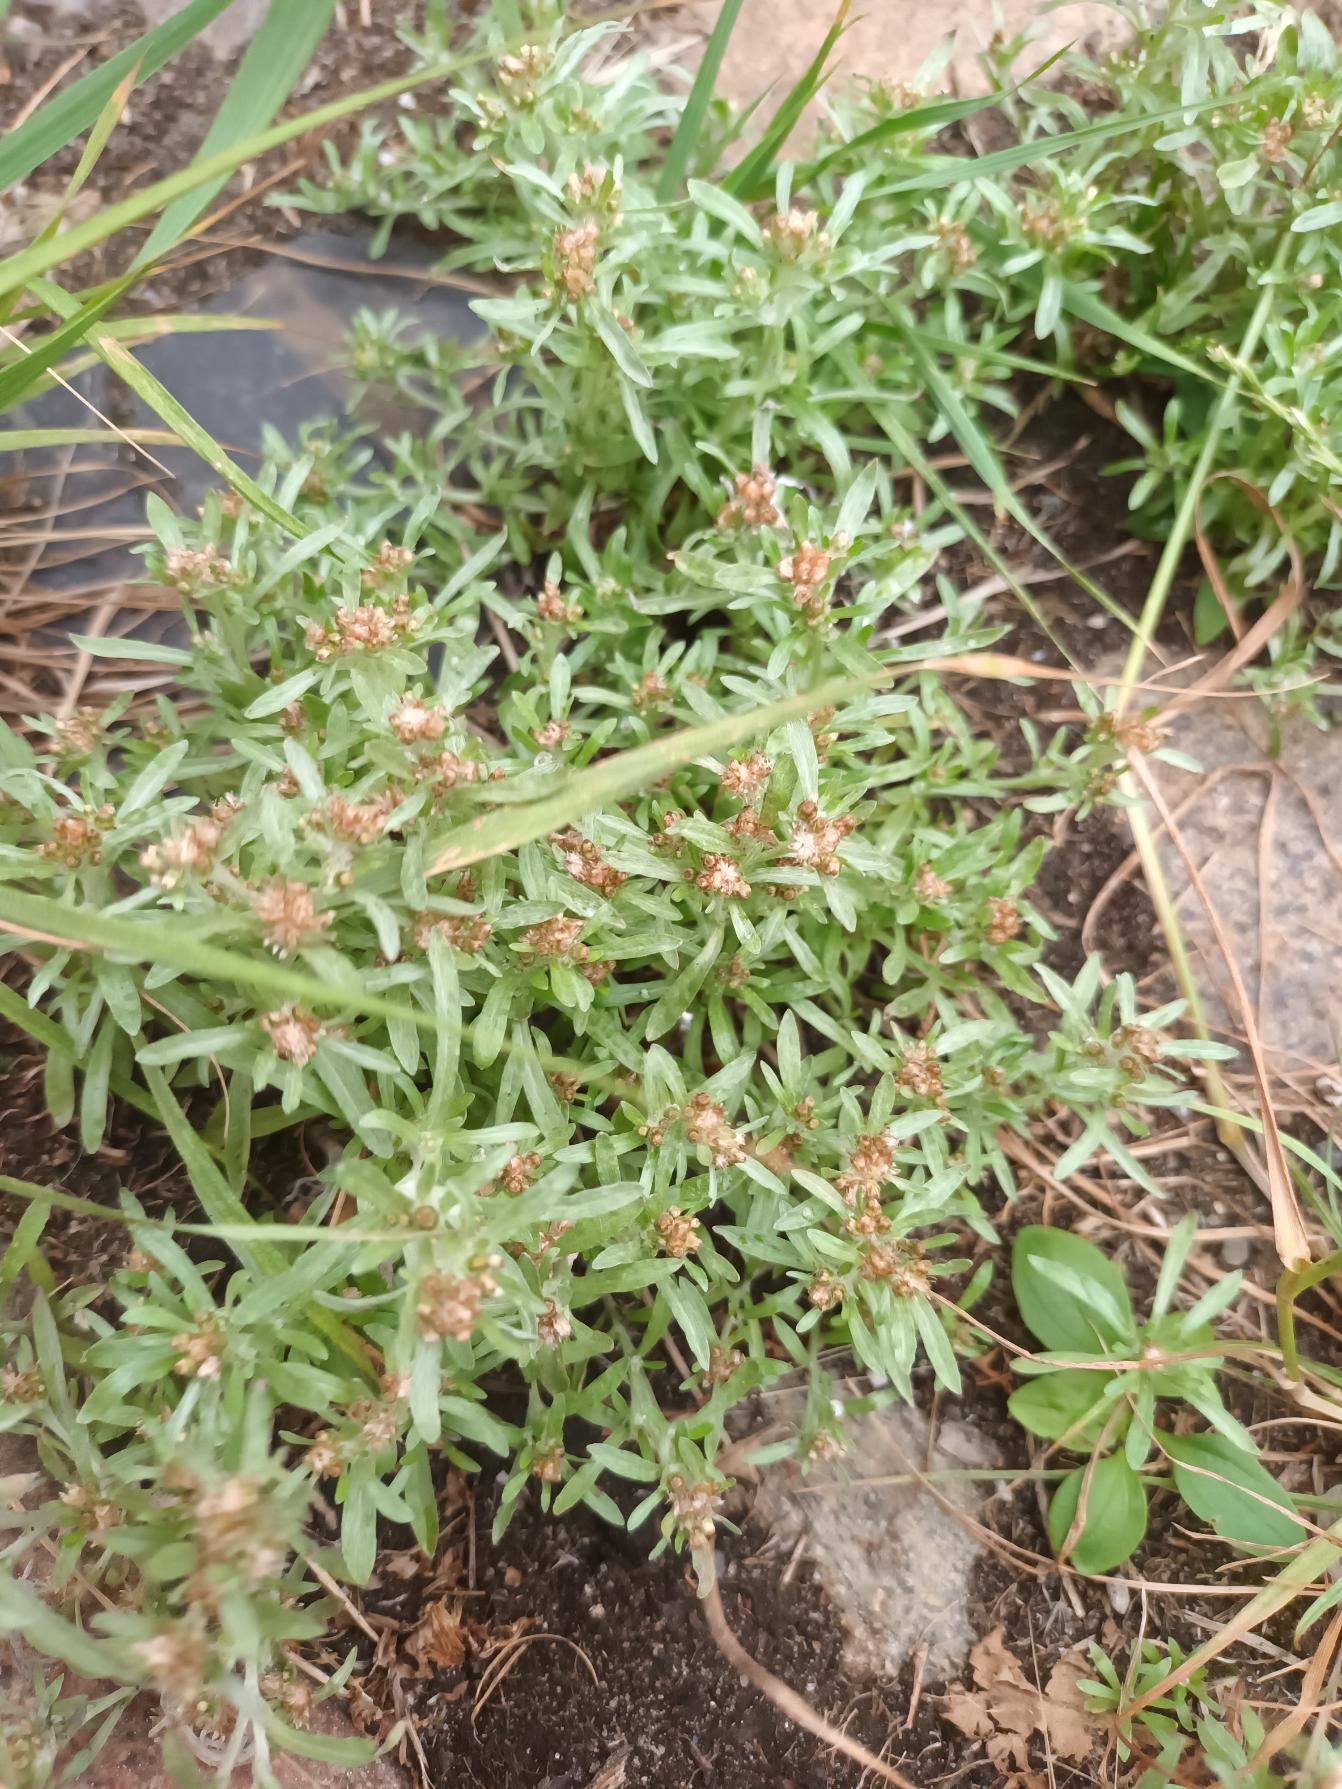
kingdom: Plantae
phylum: Tracheophyta
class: Magnoliopsida
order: Asterales
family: Asteraceae
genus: Gnaphalium
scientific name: Gnaphalium uliginosum
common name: Sump-evighedsblomst
